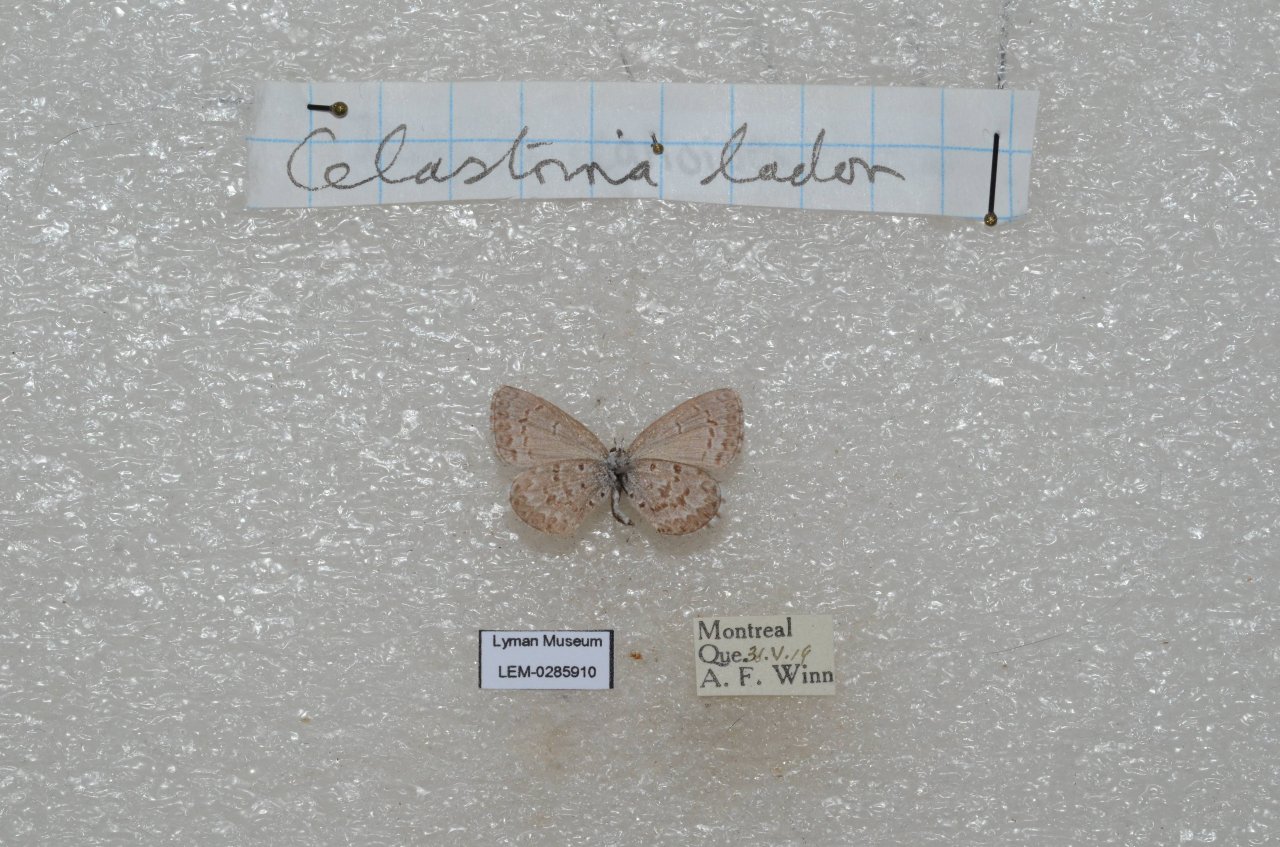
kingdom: Animalia
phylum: Arthropoda
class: Insecta
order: Lepidoptera
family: Lycaenidae
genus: Celastrina
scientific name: Celastrina
